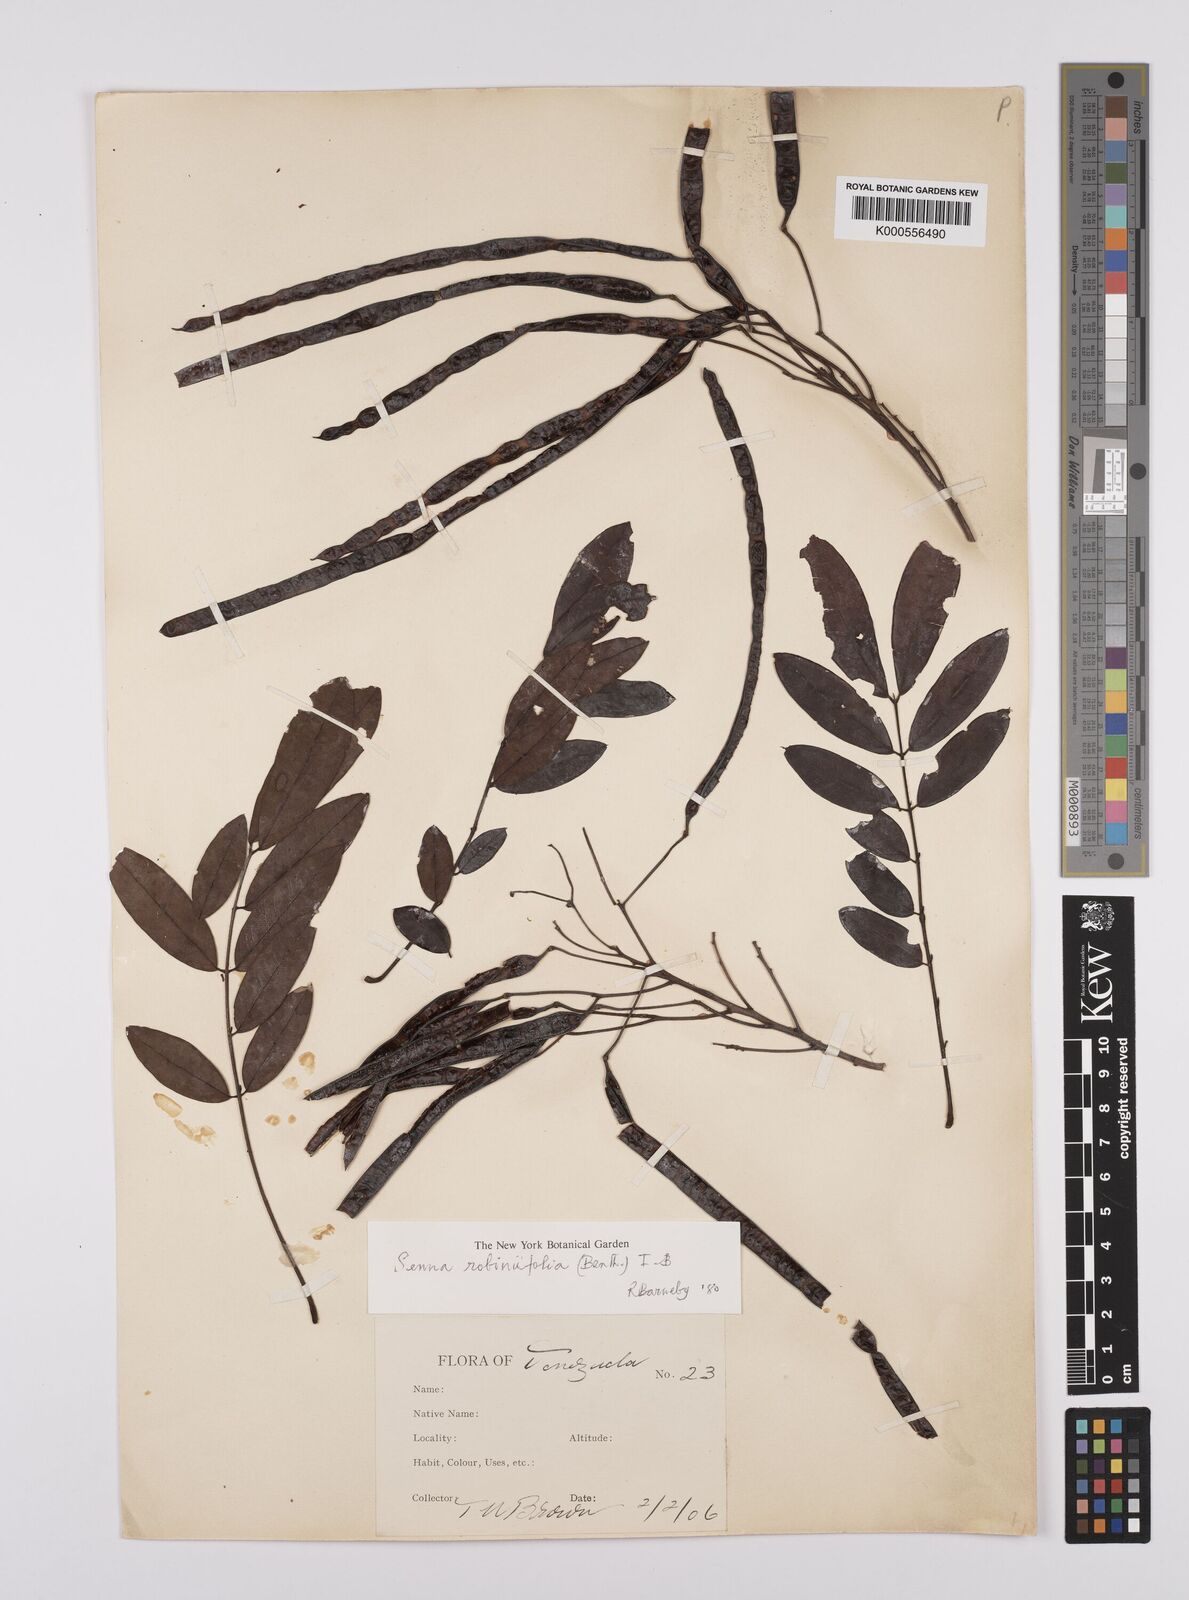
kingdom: Plantae
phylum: Tracheophyta
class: Magnoliopsida
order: Fabales
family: Fabaceae
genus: Senna
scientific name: Senna robiniifolia
